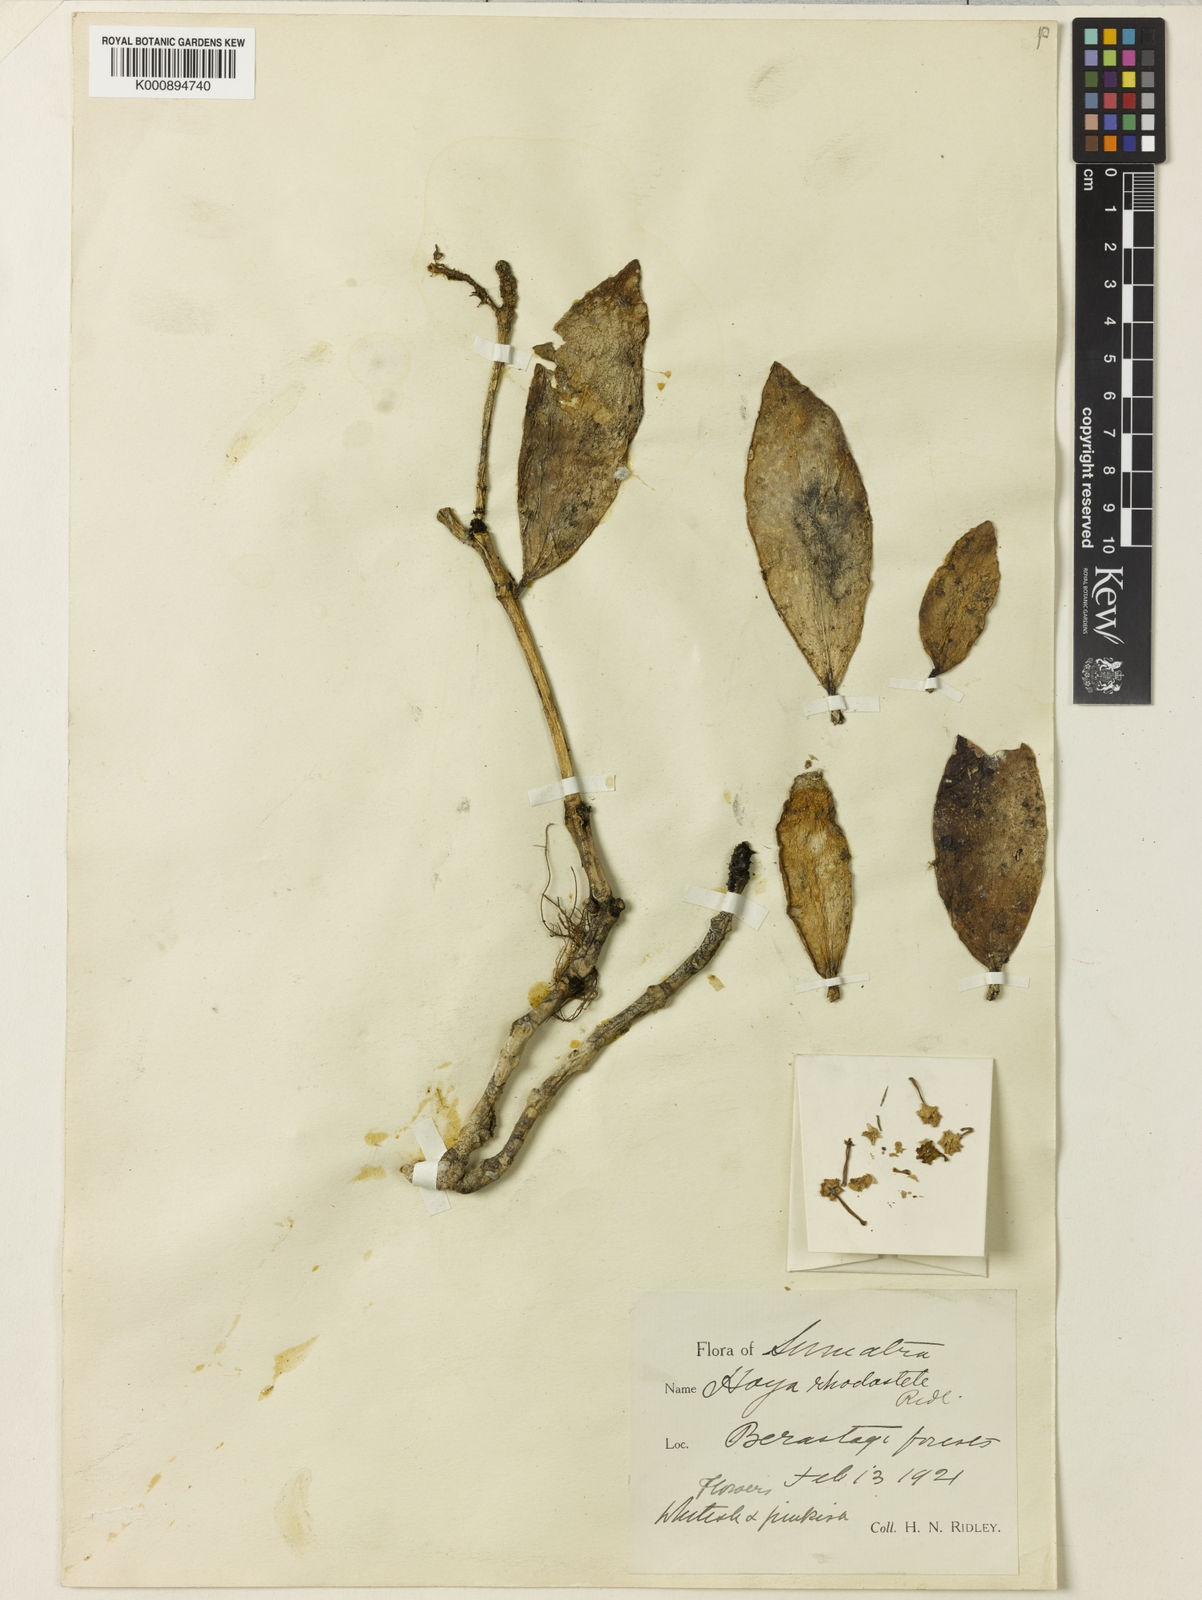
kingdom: Plantae
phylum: Tracheophyta
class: Magnoliopsida
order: Gentianales
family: Apocynaceae
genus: Hoya
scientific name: Hoya rhodostele
